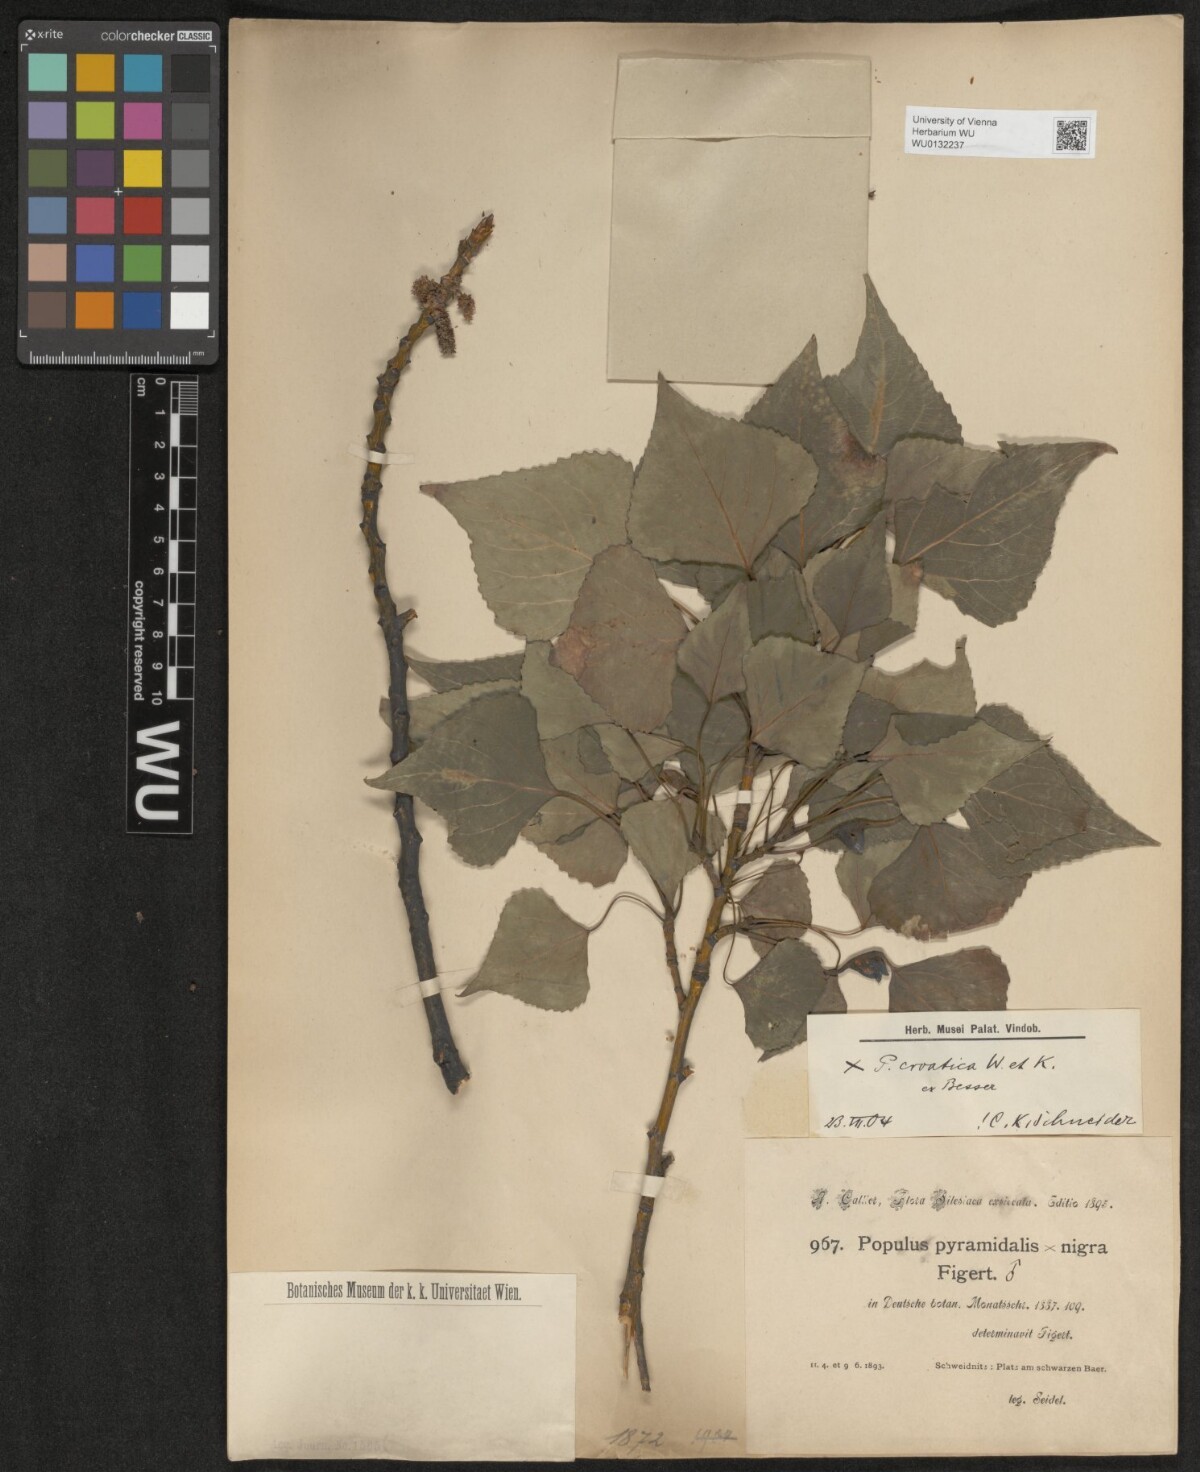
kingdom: Plantae
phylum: Tracheophyta
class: Magnoliopsida
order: Malpighiales
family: Salicaceae
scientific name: Salicaceae
